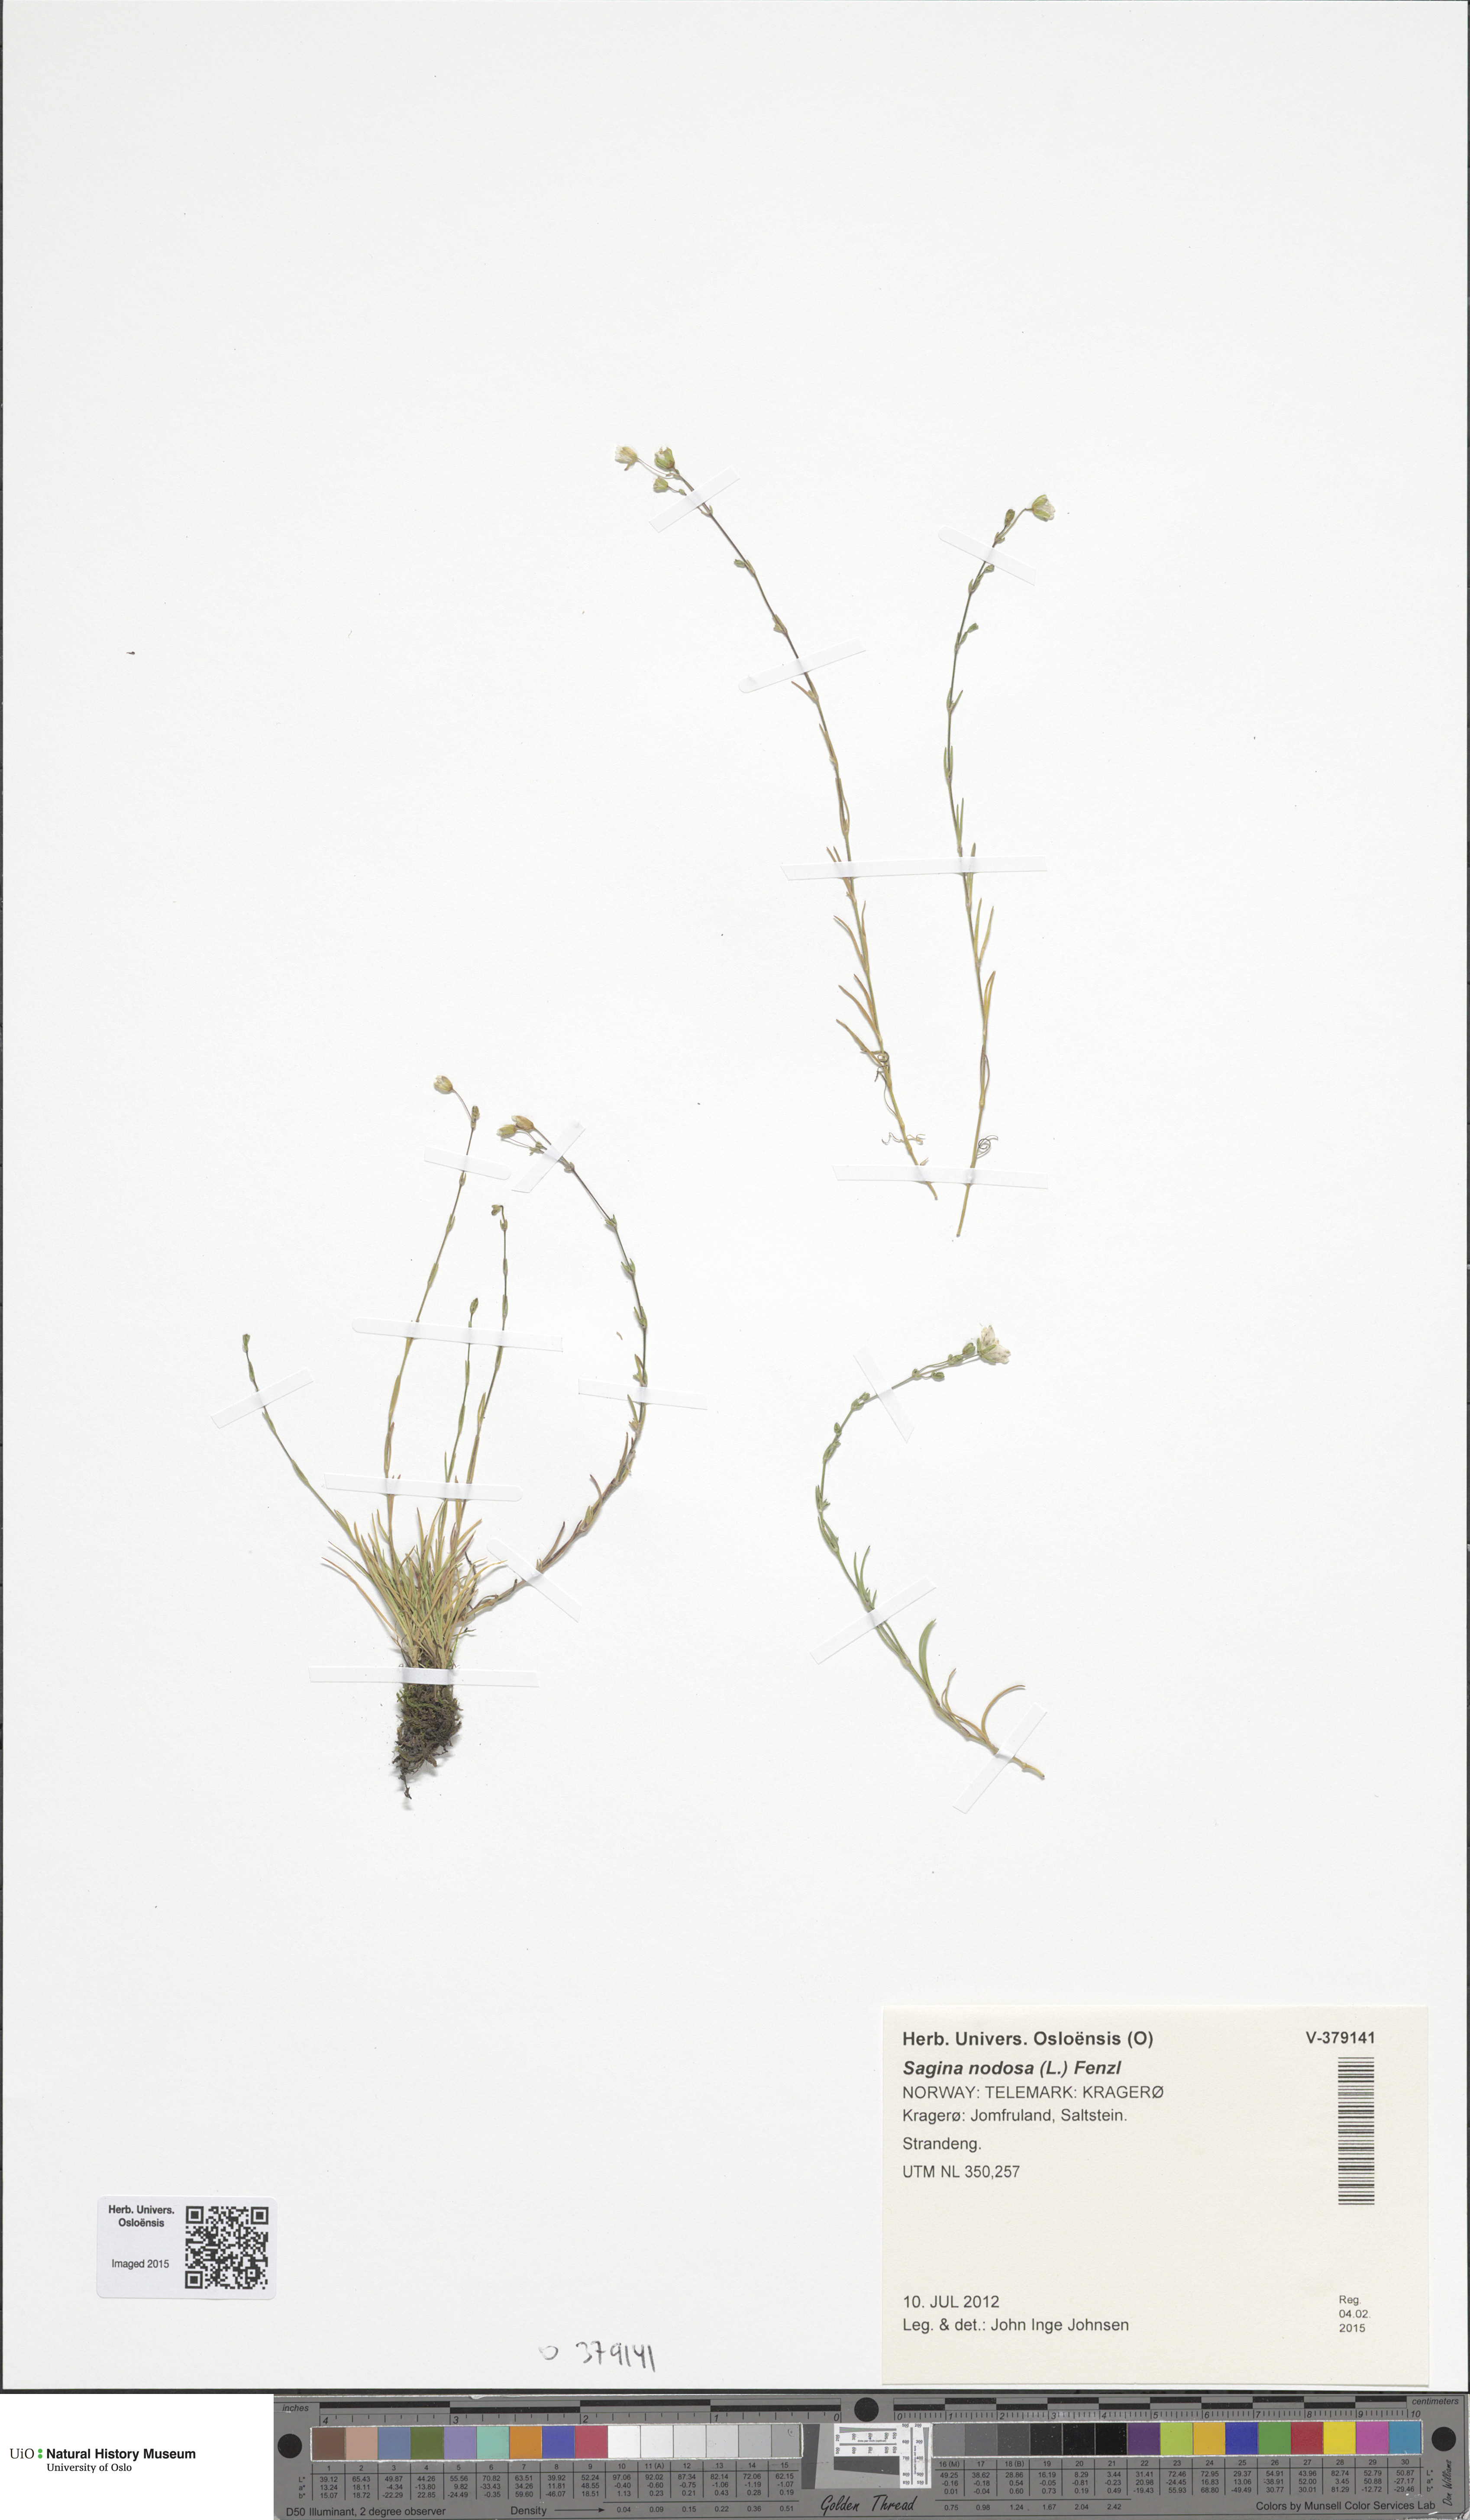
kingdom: Plantae
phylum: Tracheophyta
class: Magnoliopsida
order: Caryophyllales
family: Caryophyllaceae
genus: Sagina
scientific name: Sagina nodosa
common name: Knotted pearlwort
